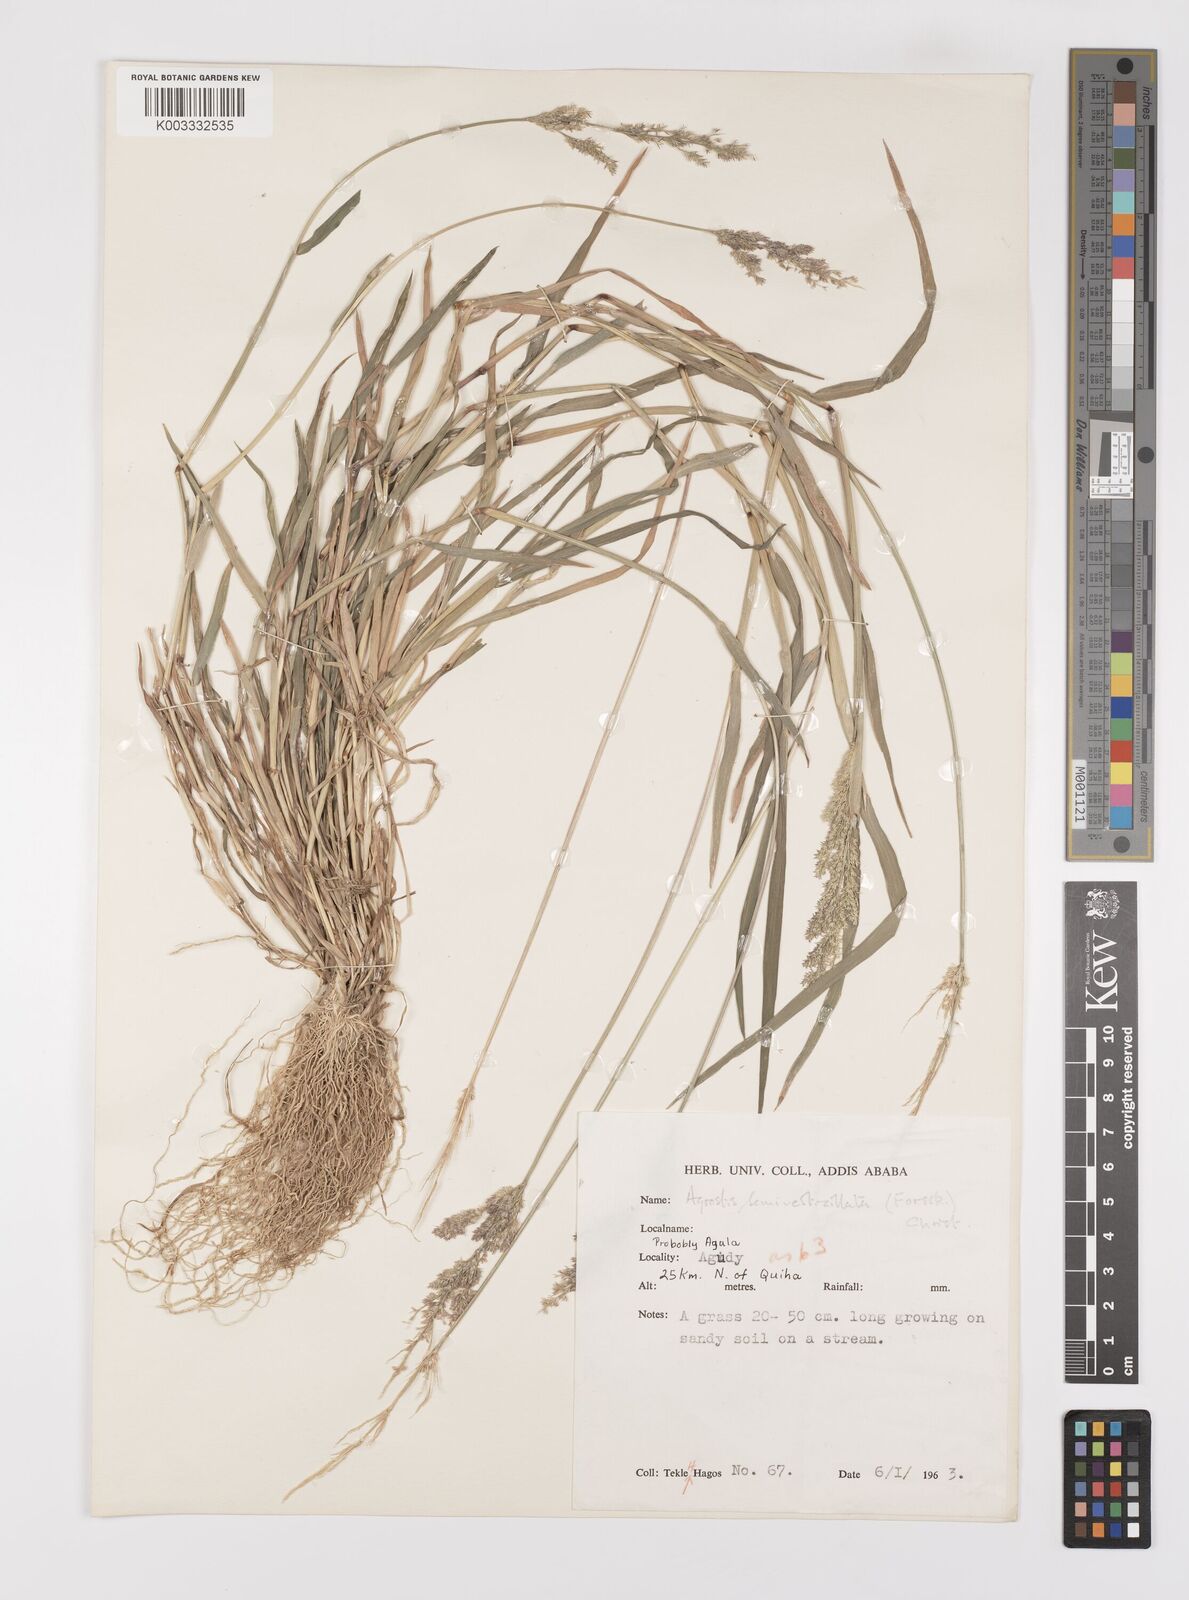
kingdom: Plantae
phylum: Tracheophyta
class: Liliopsida
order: Poales
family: Poaceae
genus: Polypogon
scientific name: Polypogon viridis
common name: Water bent
